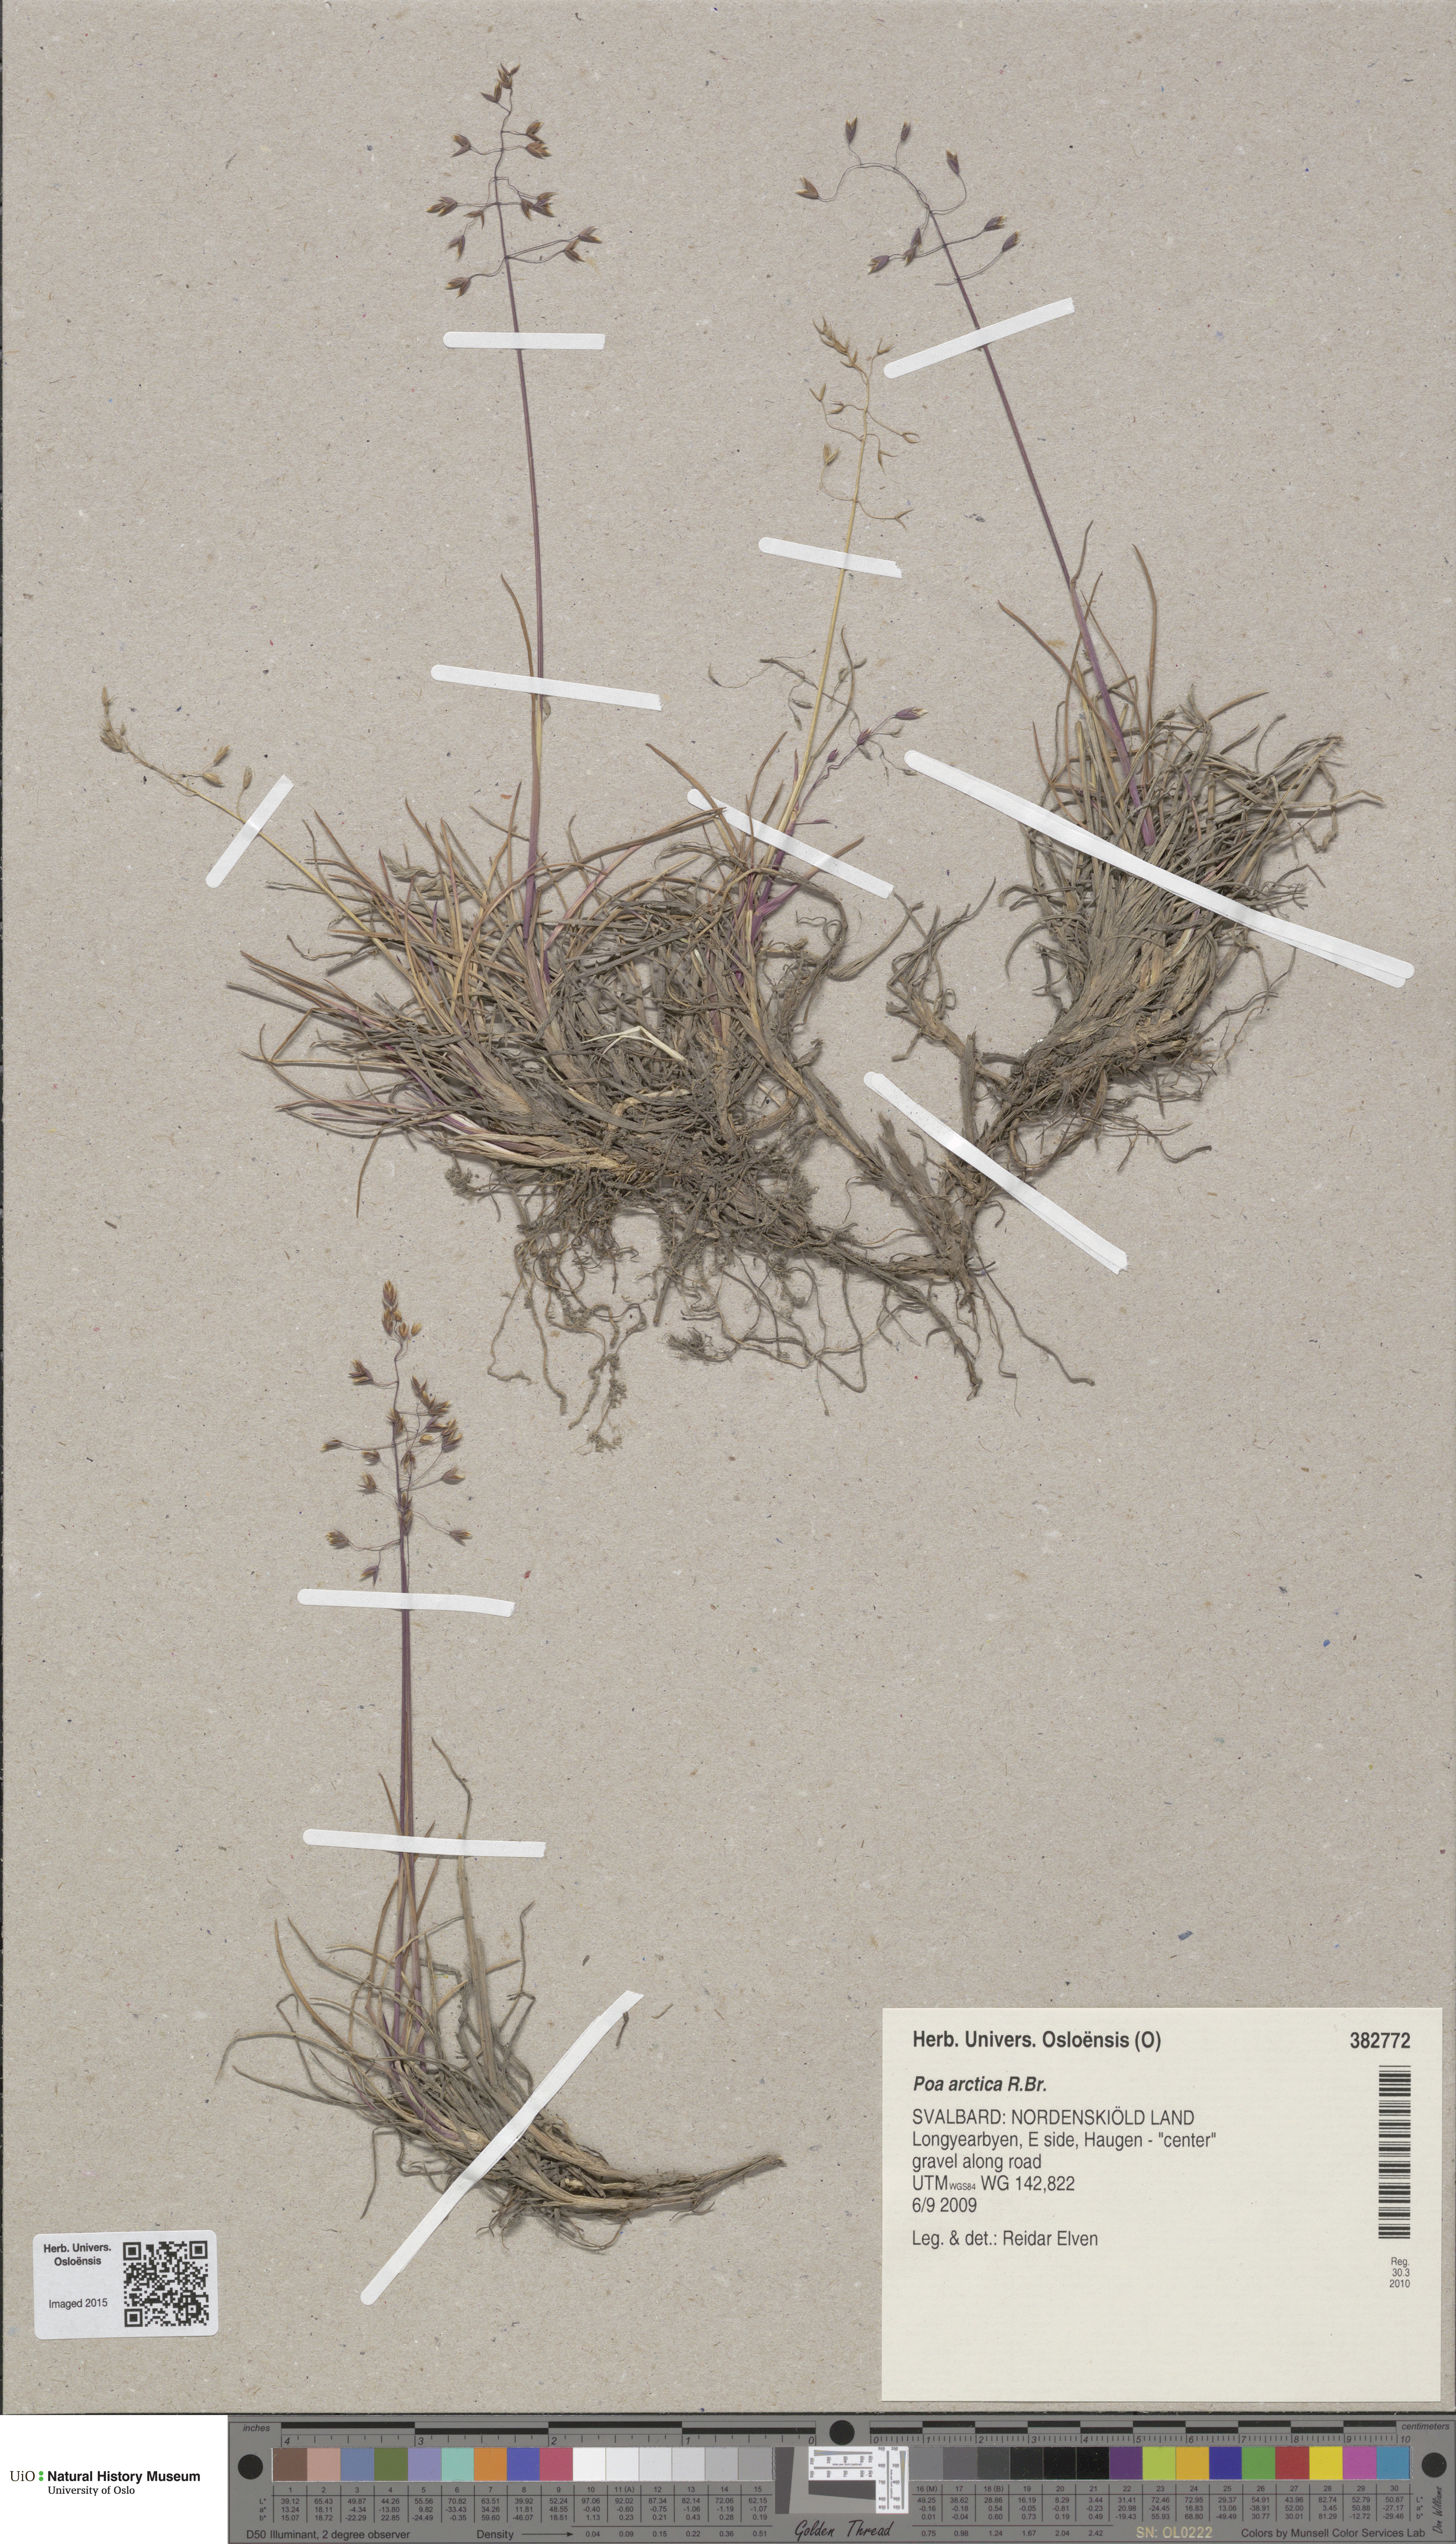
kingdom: Plantae
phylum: Tracheophyta
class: Liliopsida
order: Poales
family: Poaceae
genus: Poa
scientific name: Poa arctica
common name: Arctic bluegrass
